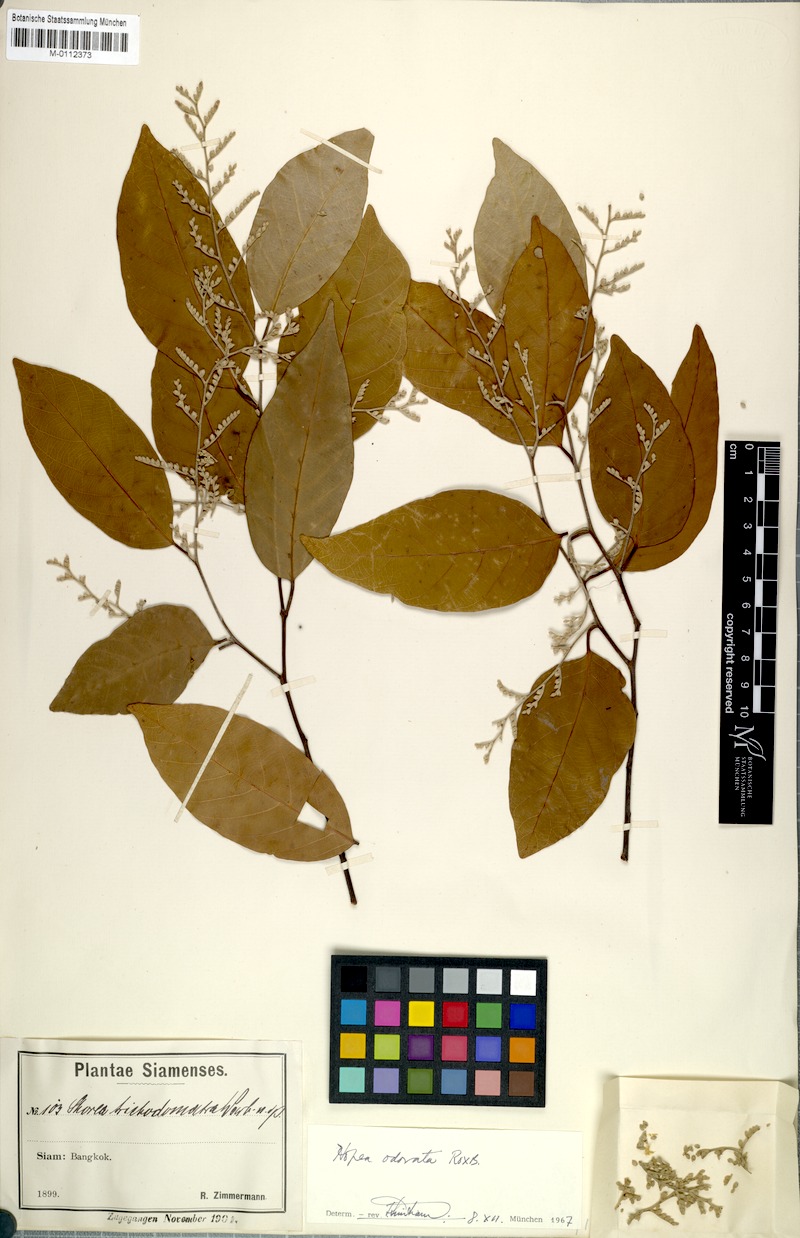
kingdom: Plantae
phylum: Tracheophyta
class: Magnoliopsida
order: Malvales
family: Dipterocarpaceae
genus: Hopea
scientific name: Hopea odorata
